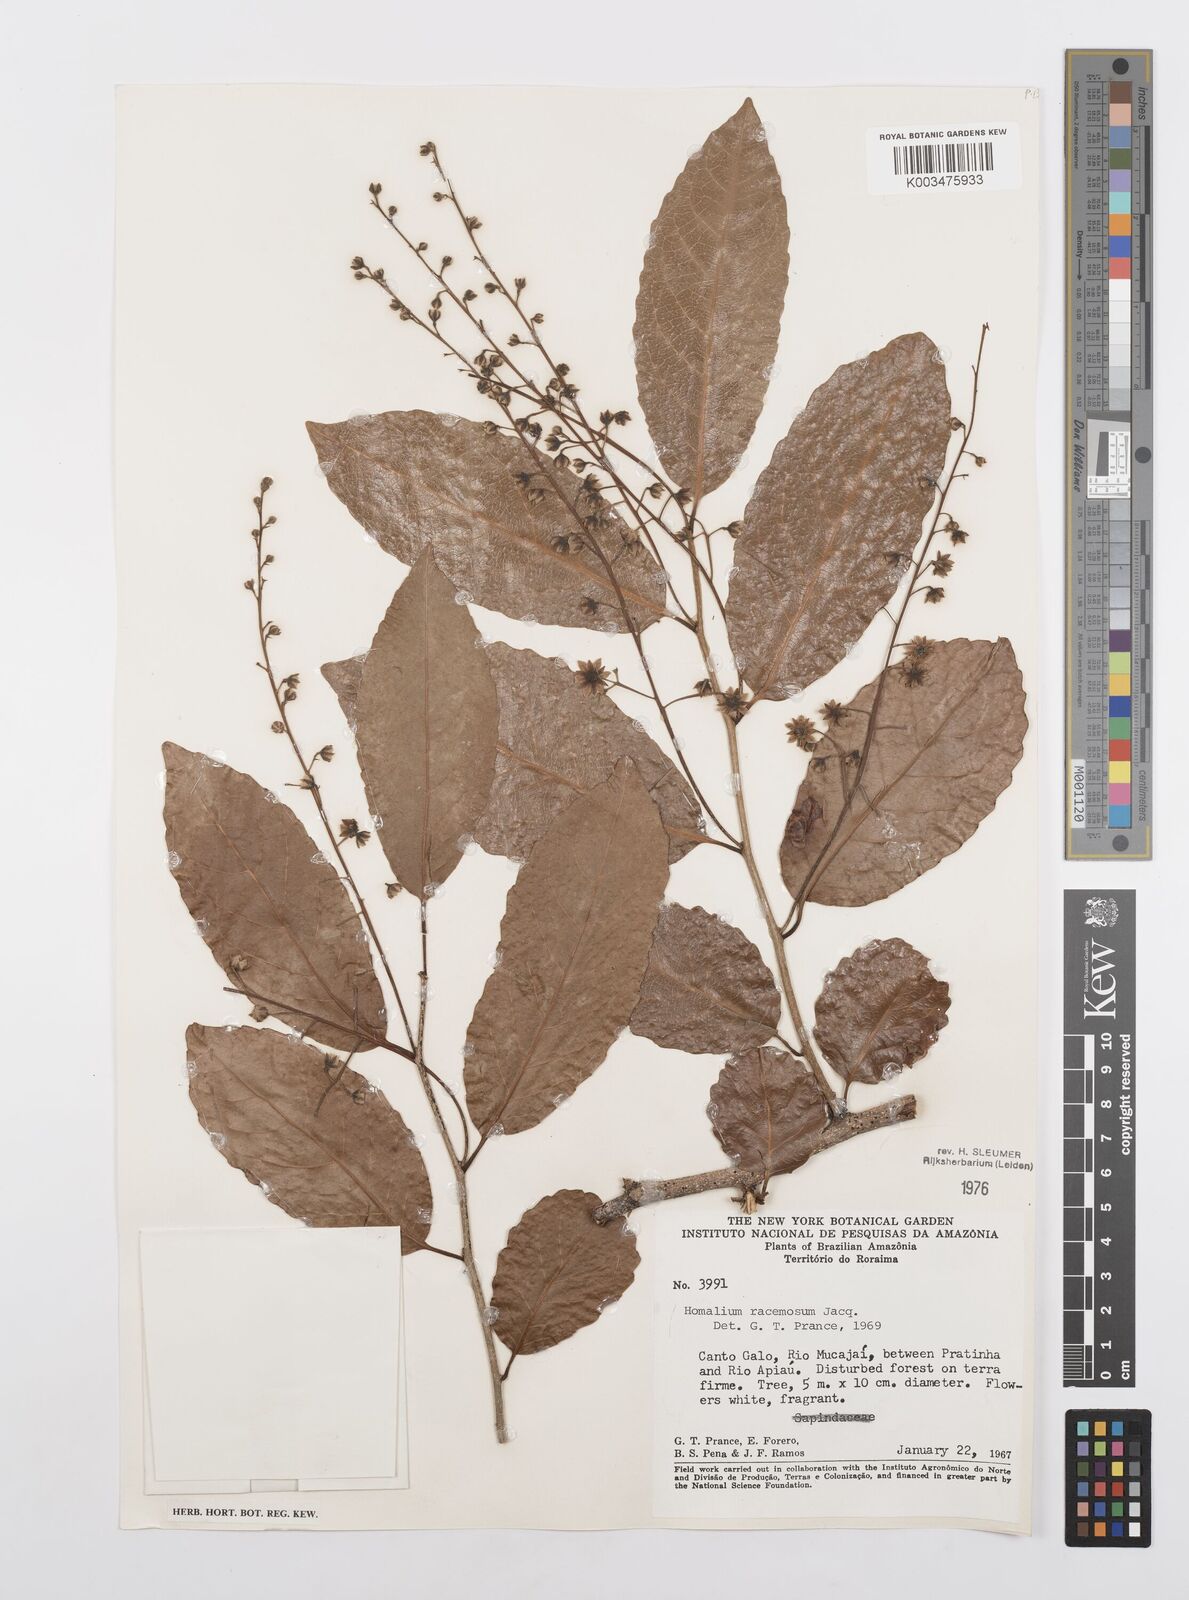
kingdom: Plantae
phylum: Tracheophyta
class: Magnoliopsida
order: Malpighiales
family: Salicaceae
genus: Homalium
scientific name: Homalium racemosum
